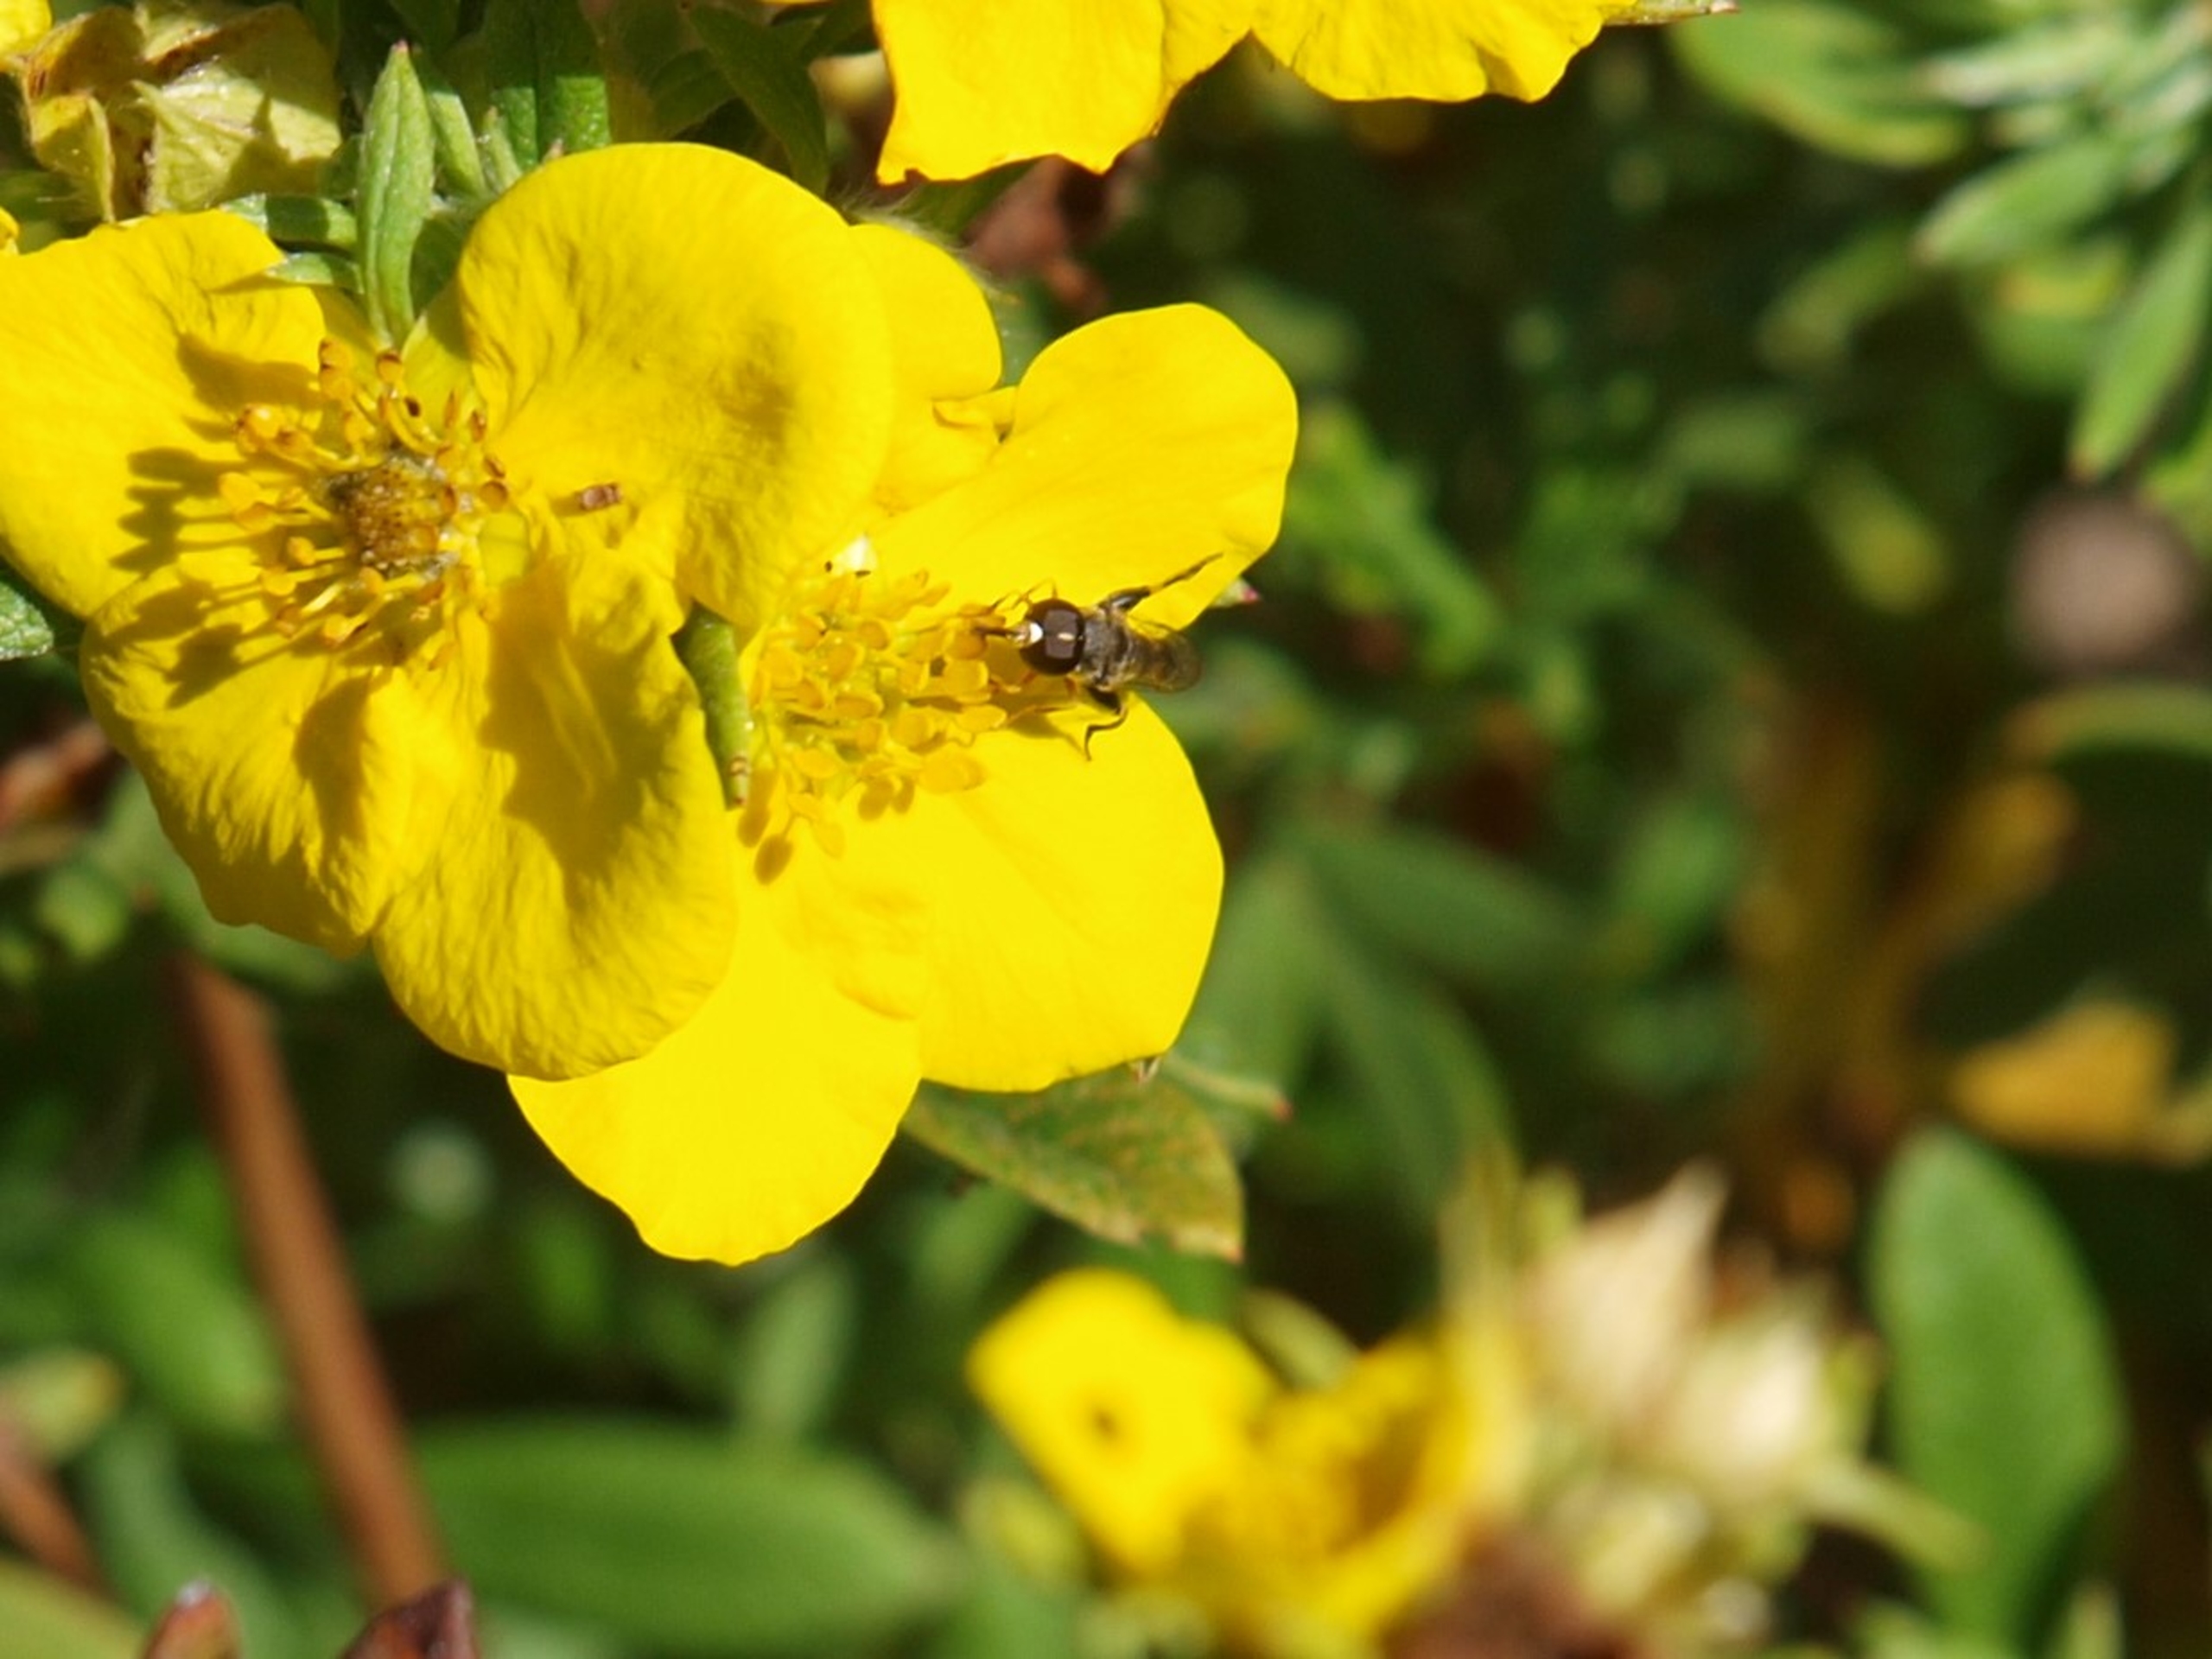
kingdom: Animalia
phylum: Arthropoda
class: Insecta
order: Diptera
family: Syrphidae
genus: Syritta
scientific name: Syritta pipiens
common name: Kompost-svirreflue
